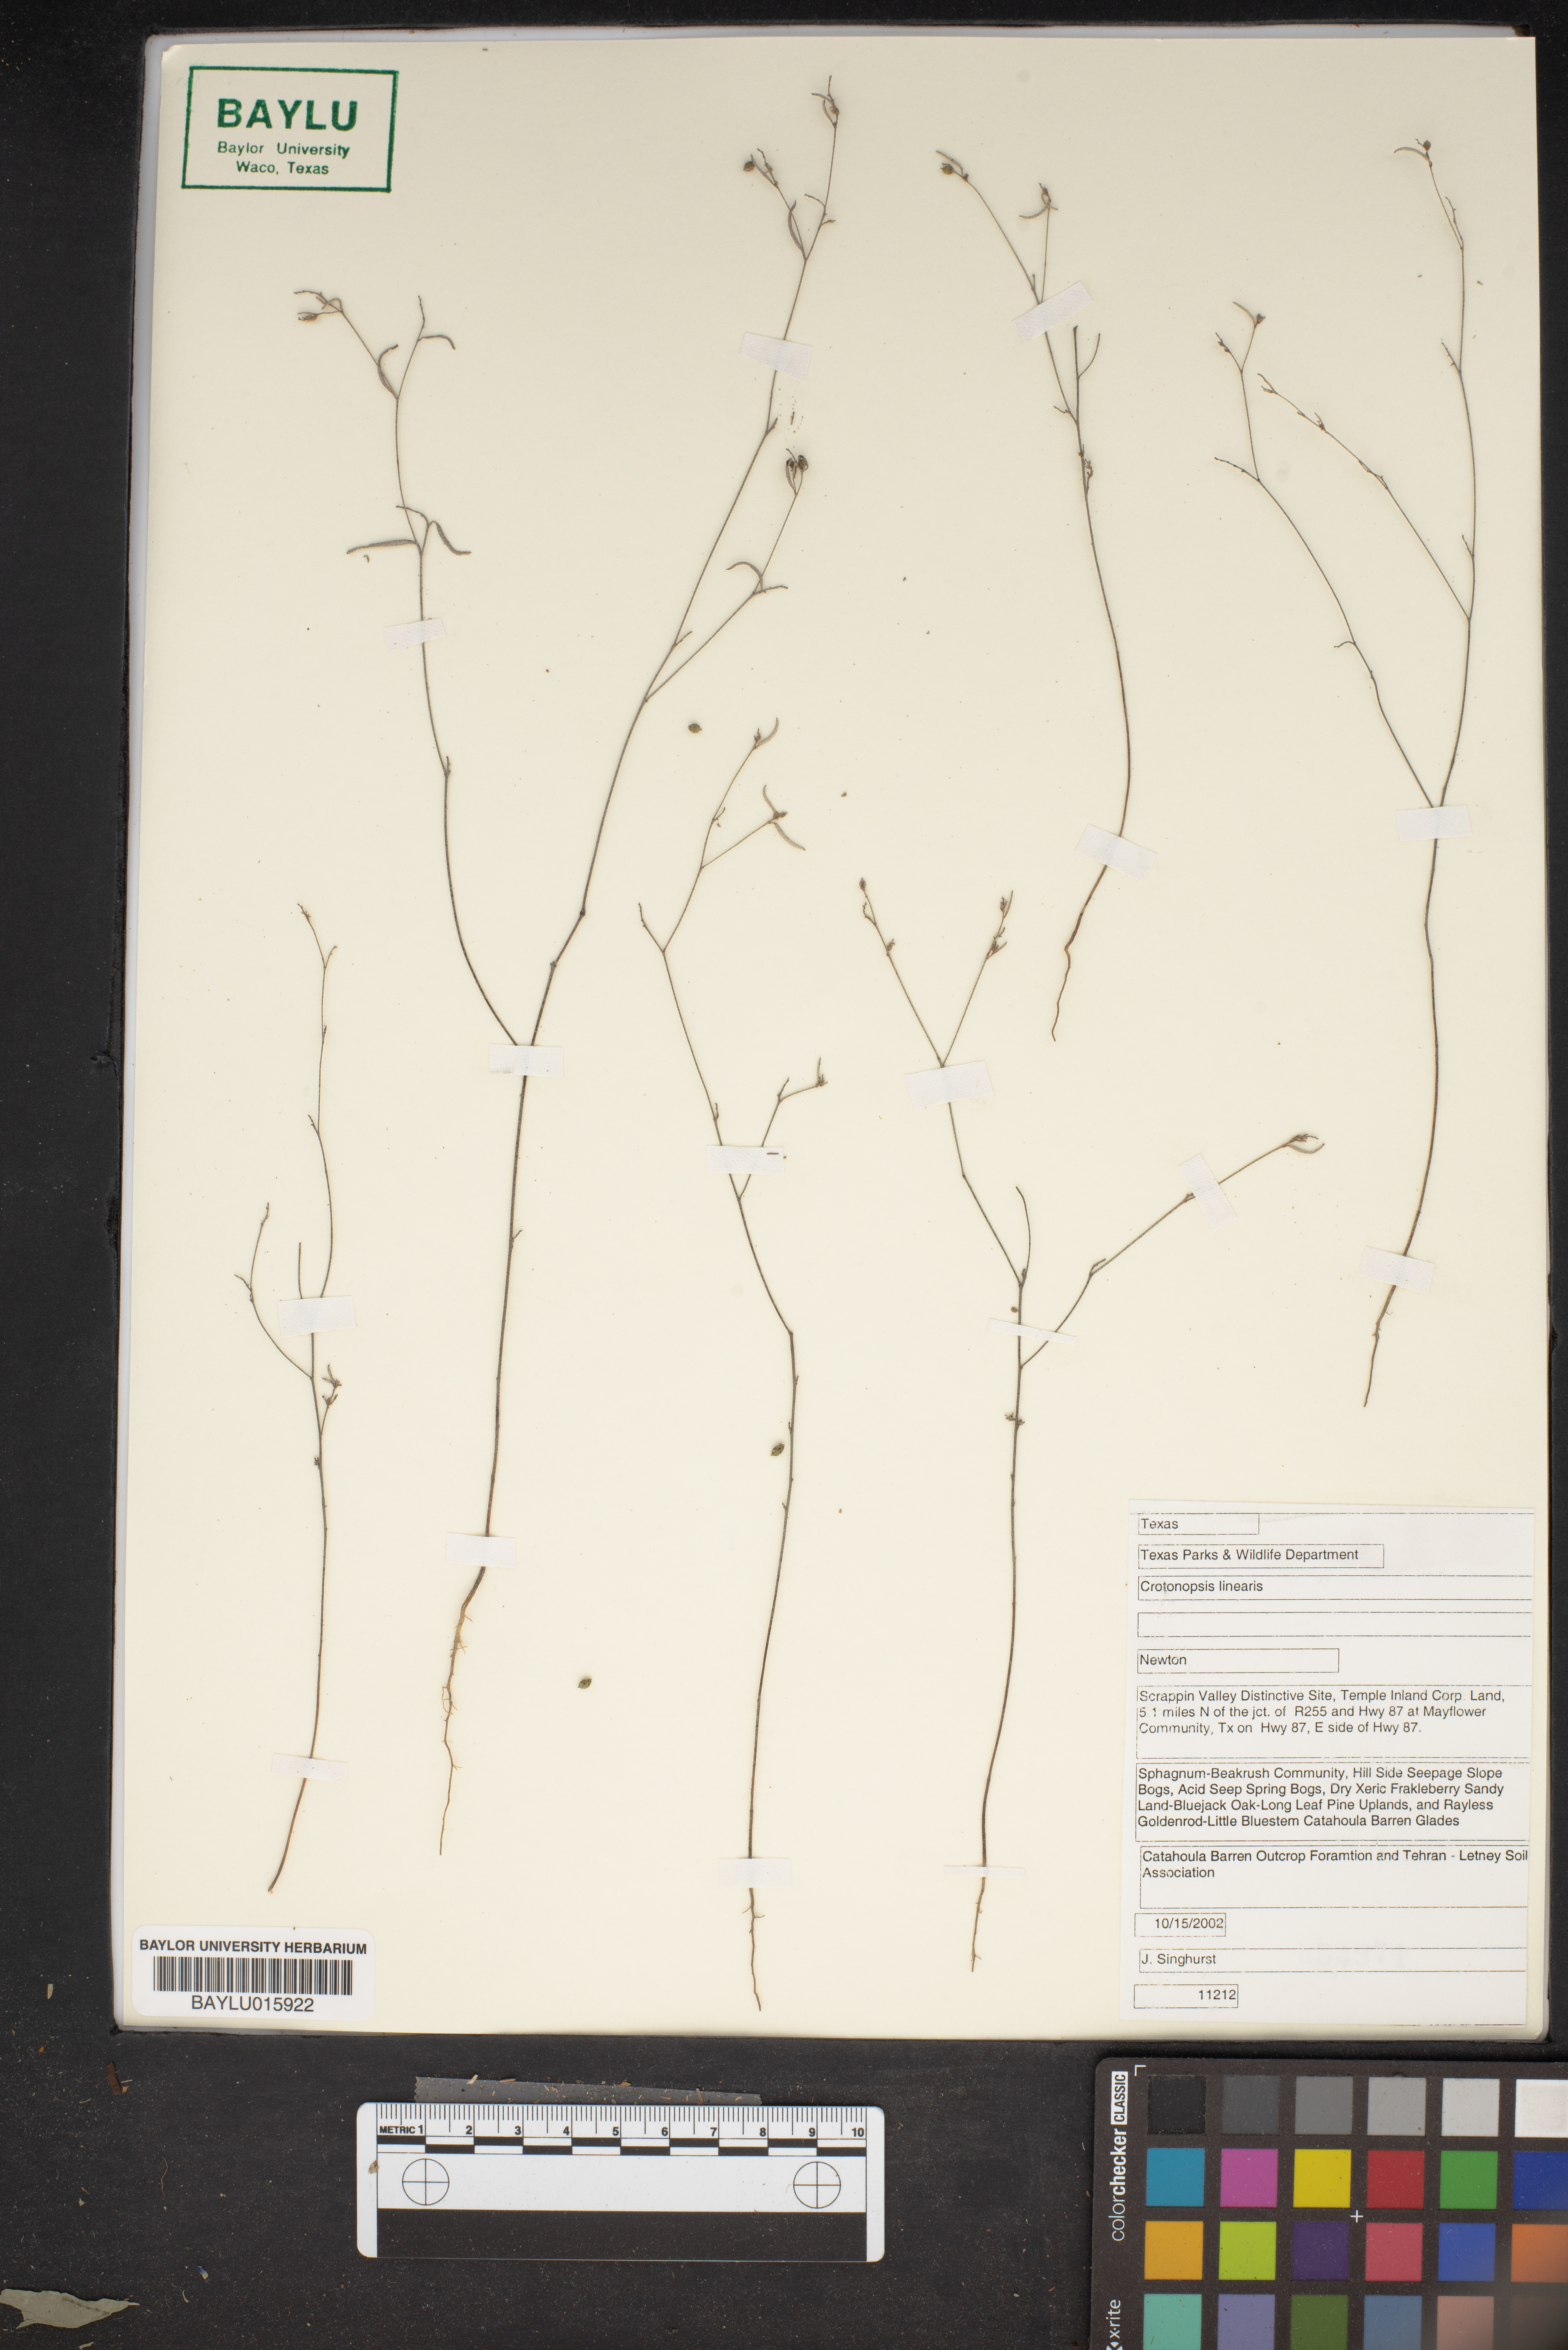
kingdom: Plantae
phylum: Tracheophyta
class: Magnoliopsida
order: Malpighiales
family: Euphorbiaceae
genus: Croton
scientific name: Croton michauxii
